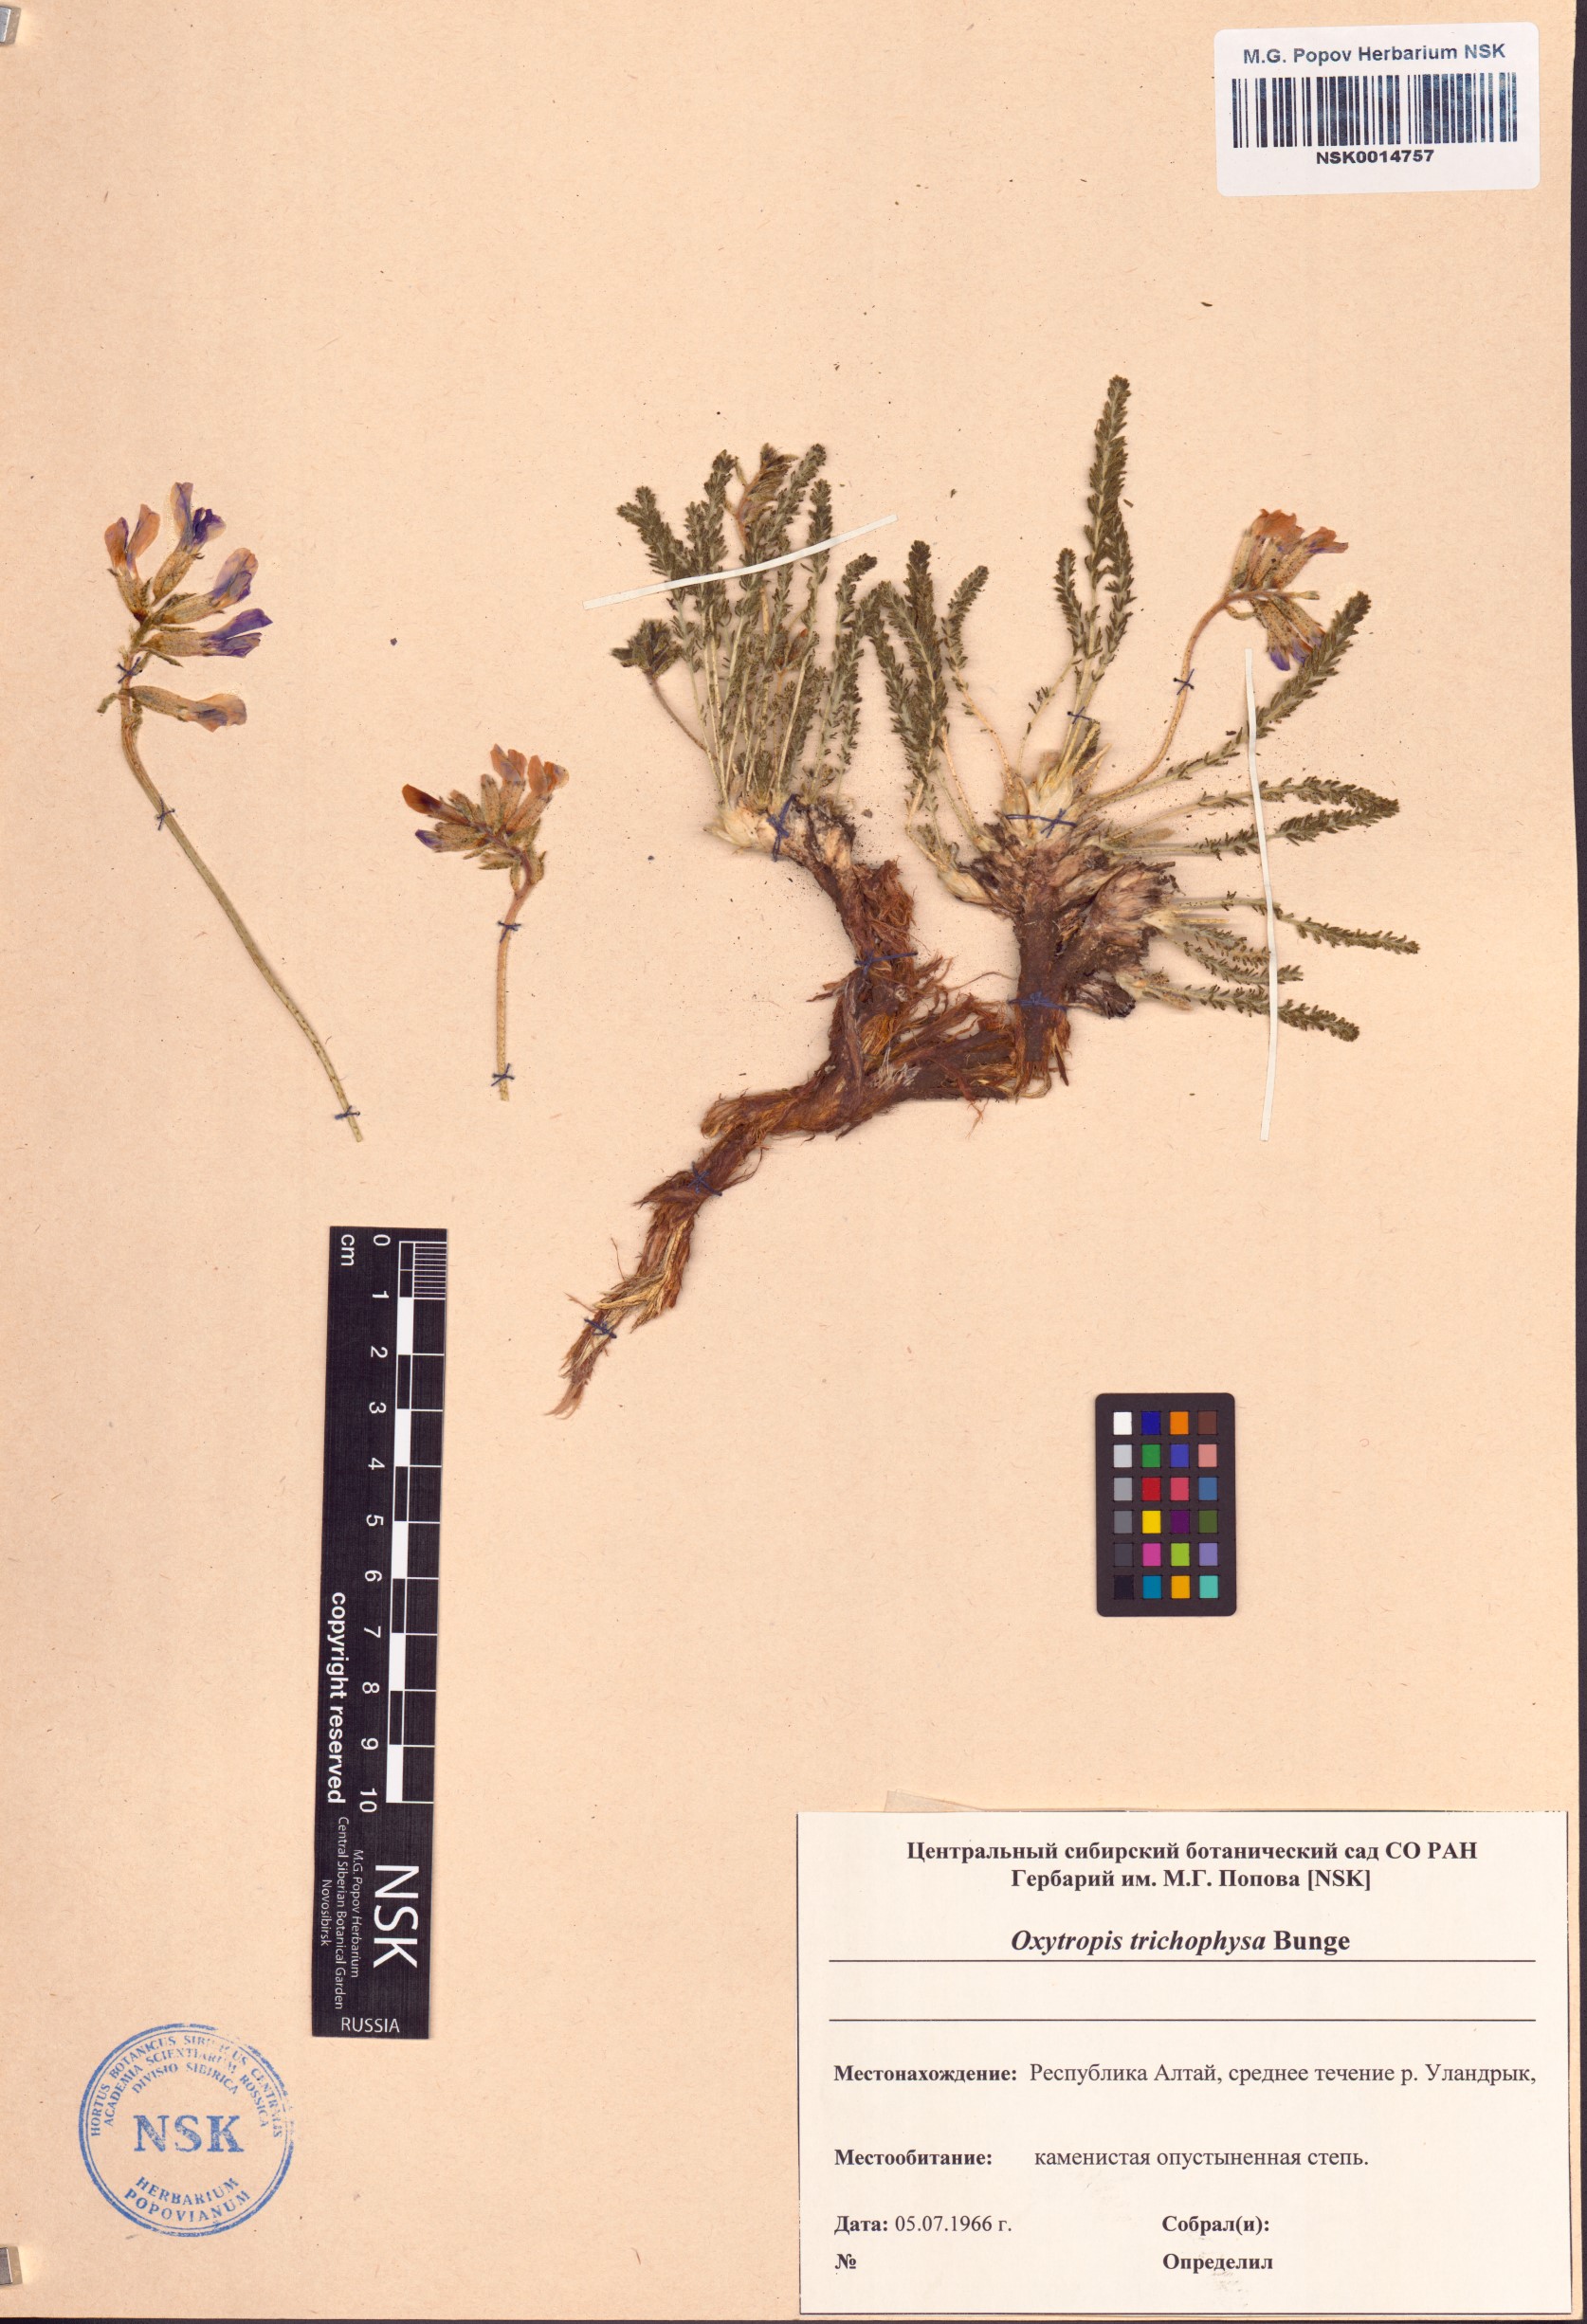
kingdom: Plantae
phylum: Tracheophyta
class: Magnoliopsida
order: Fabales
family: Fabaceae
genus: Oxytropis
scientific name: Oxytropis trichophysa
